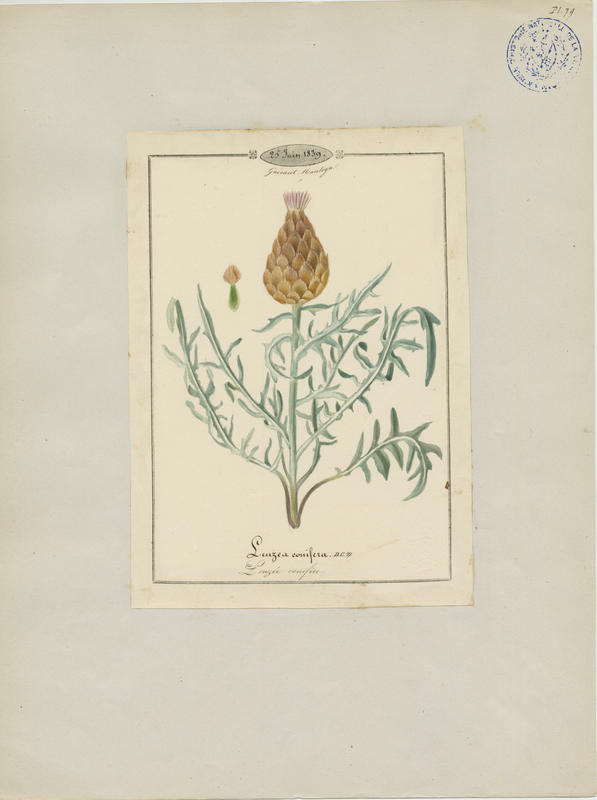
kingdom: Plantae
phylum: Tracheophyta
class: Magnoliopsida
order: Asterales
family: Asteraceae
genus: Leuzea
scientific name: Leuzea conifera
